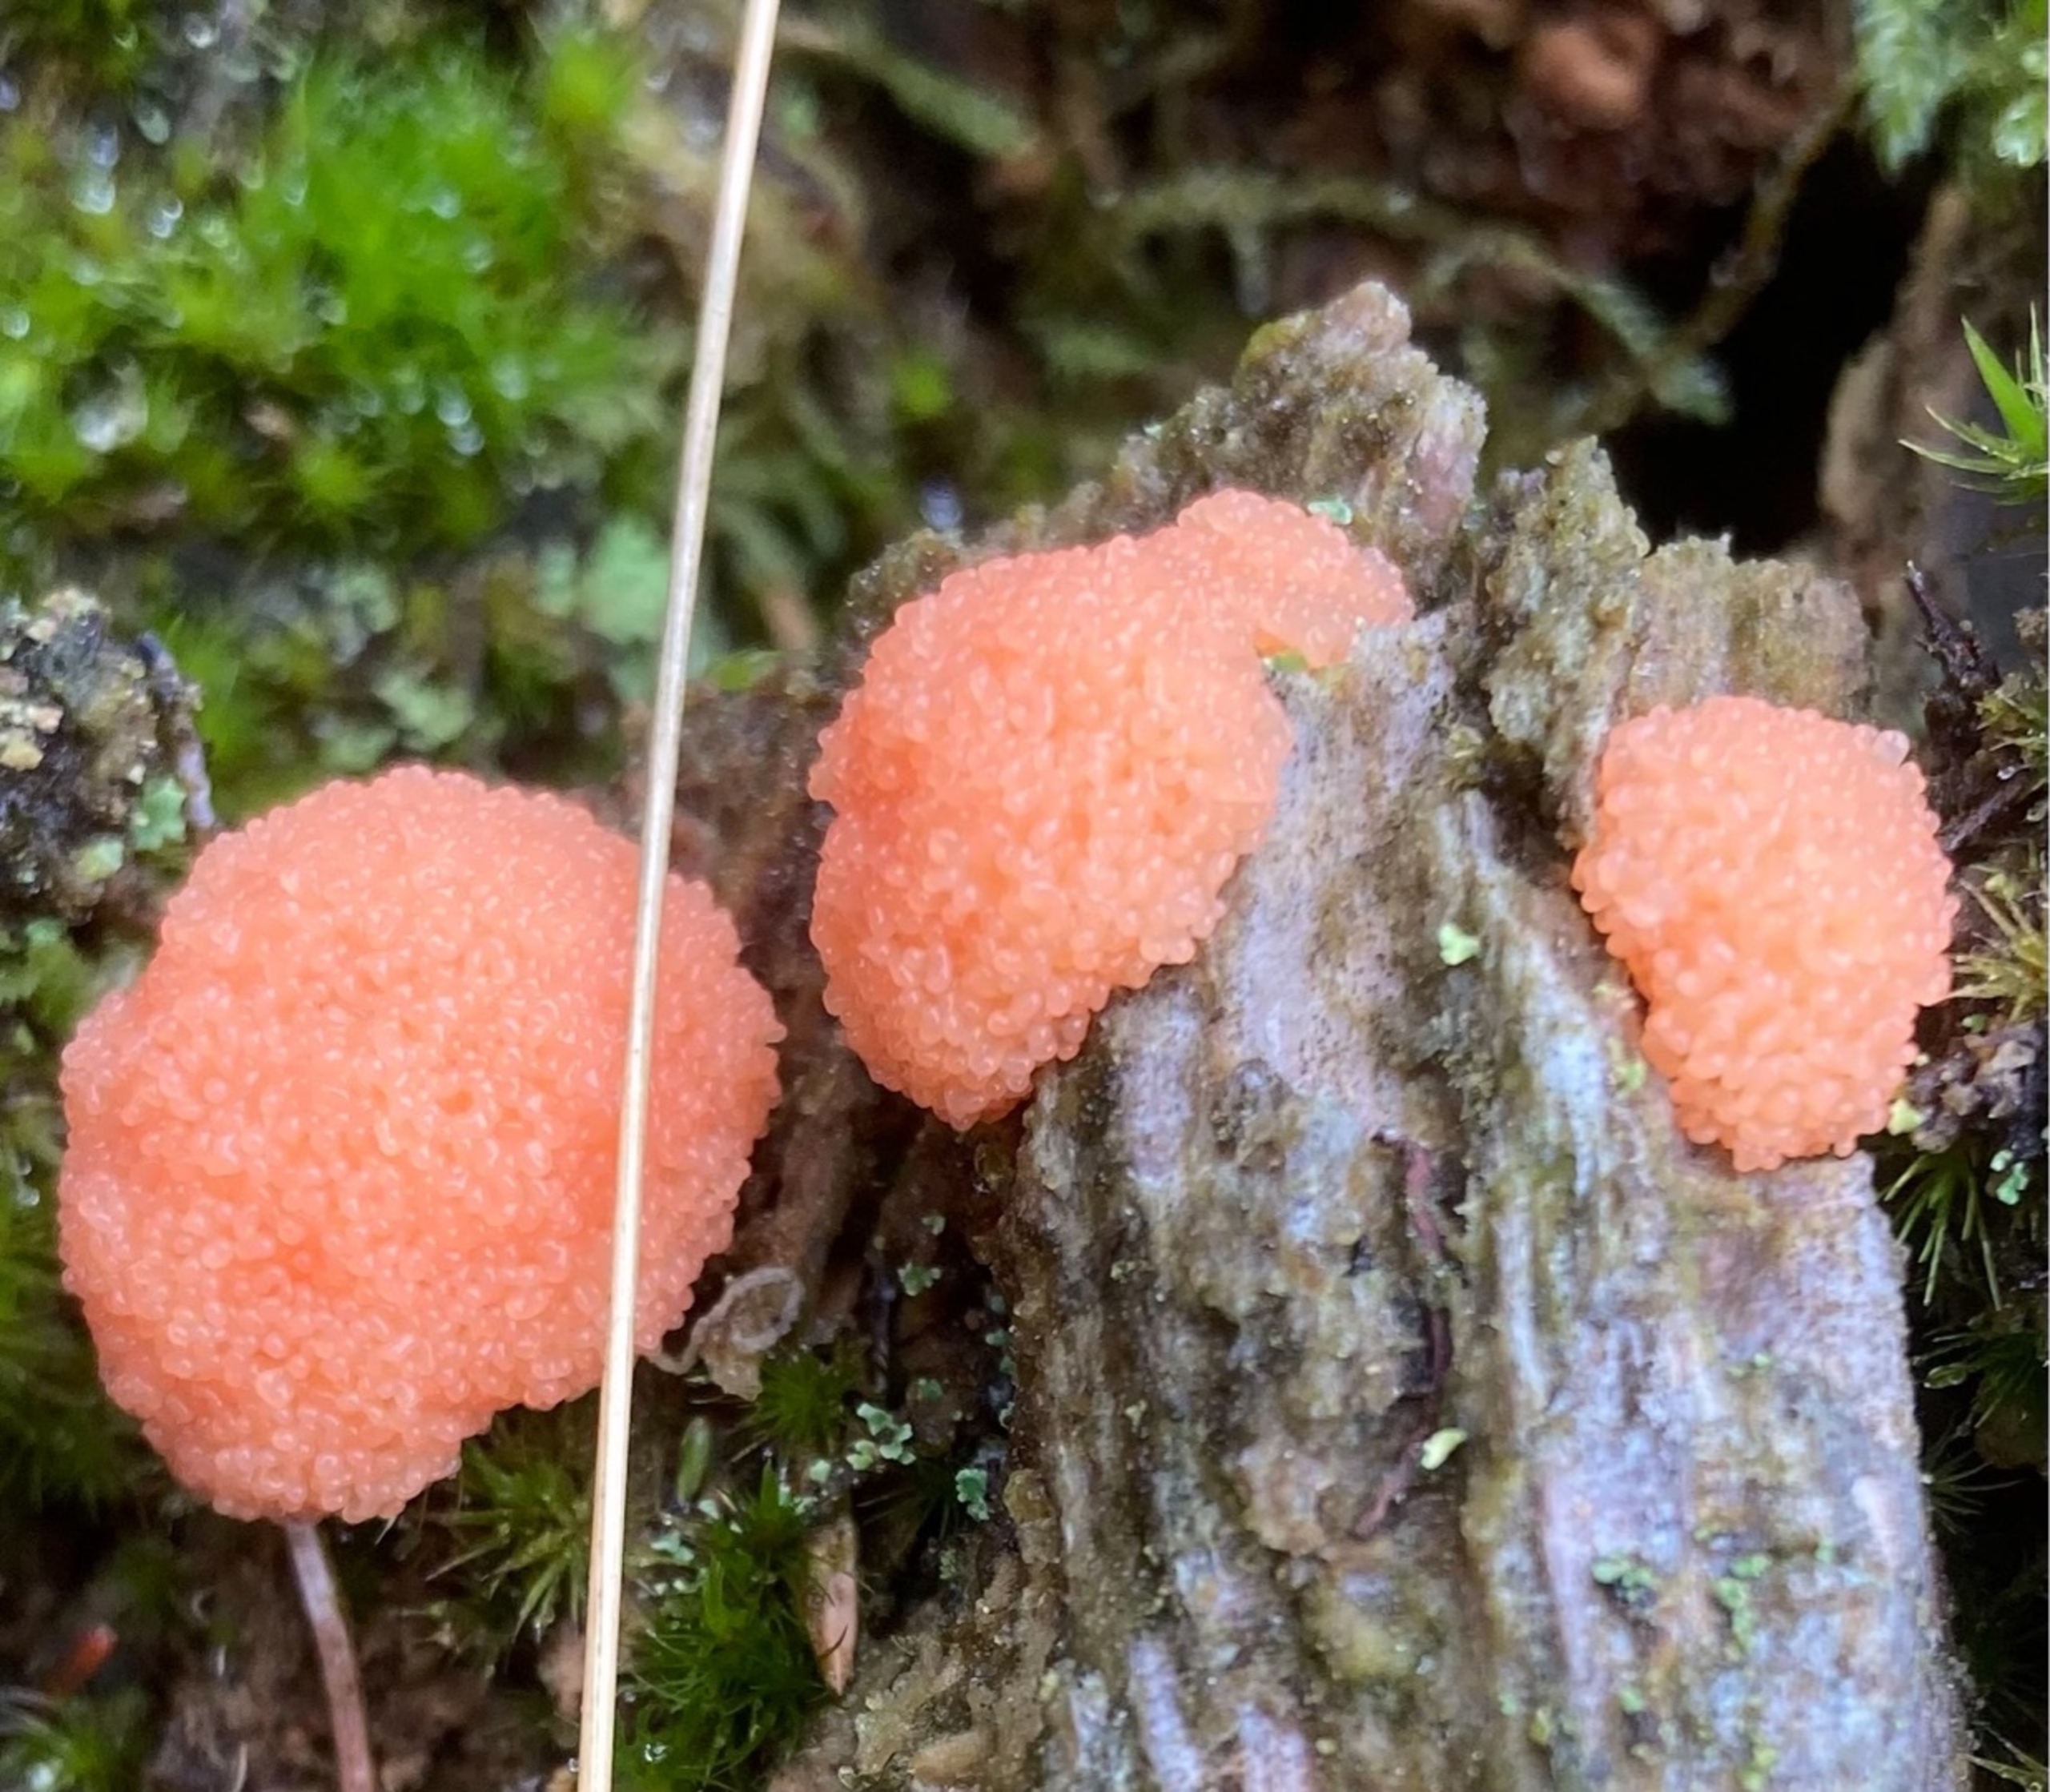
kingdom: Protozoa
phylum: Mycetozoa
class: Myxomycetes
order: Cribrariales
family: Tubiferaceae
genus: Tubifera
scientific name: Tubifera ferruginosa
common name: Kanel-støvrør
